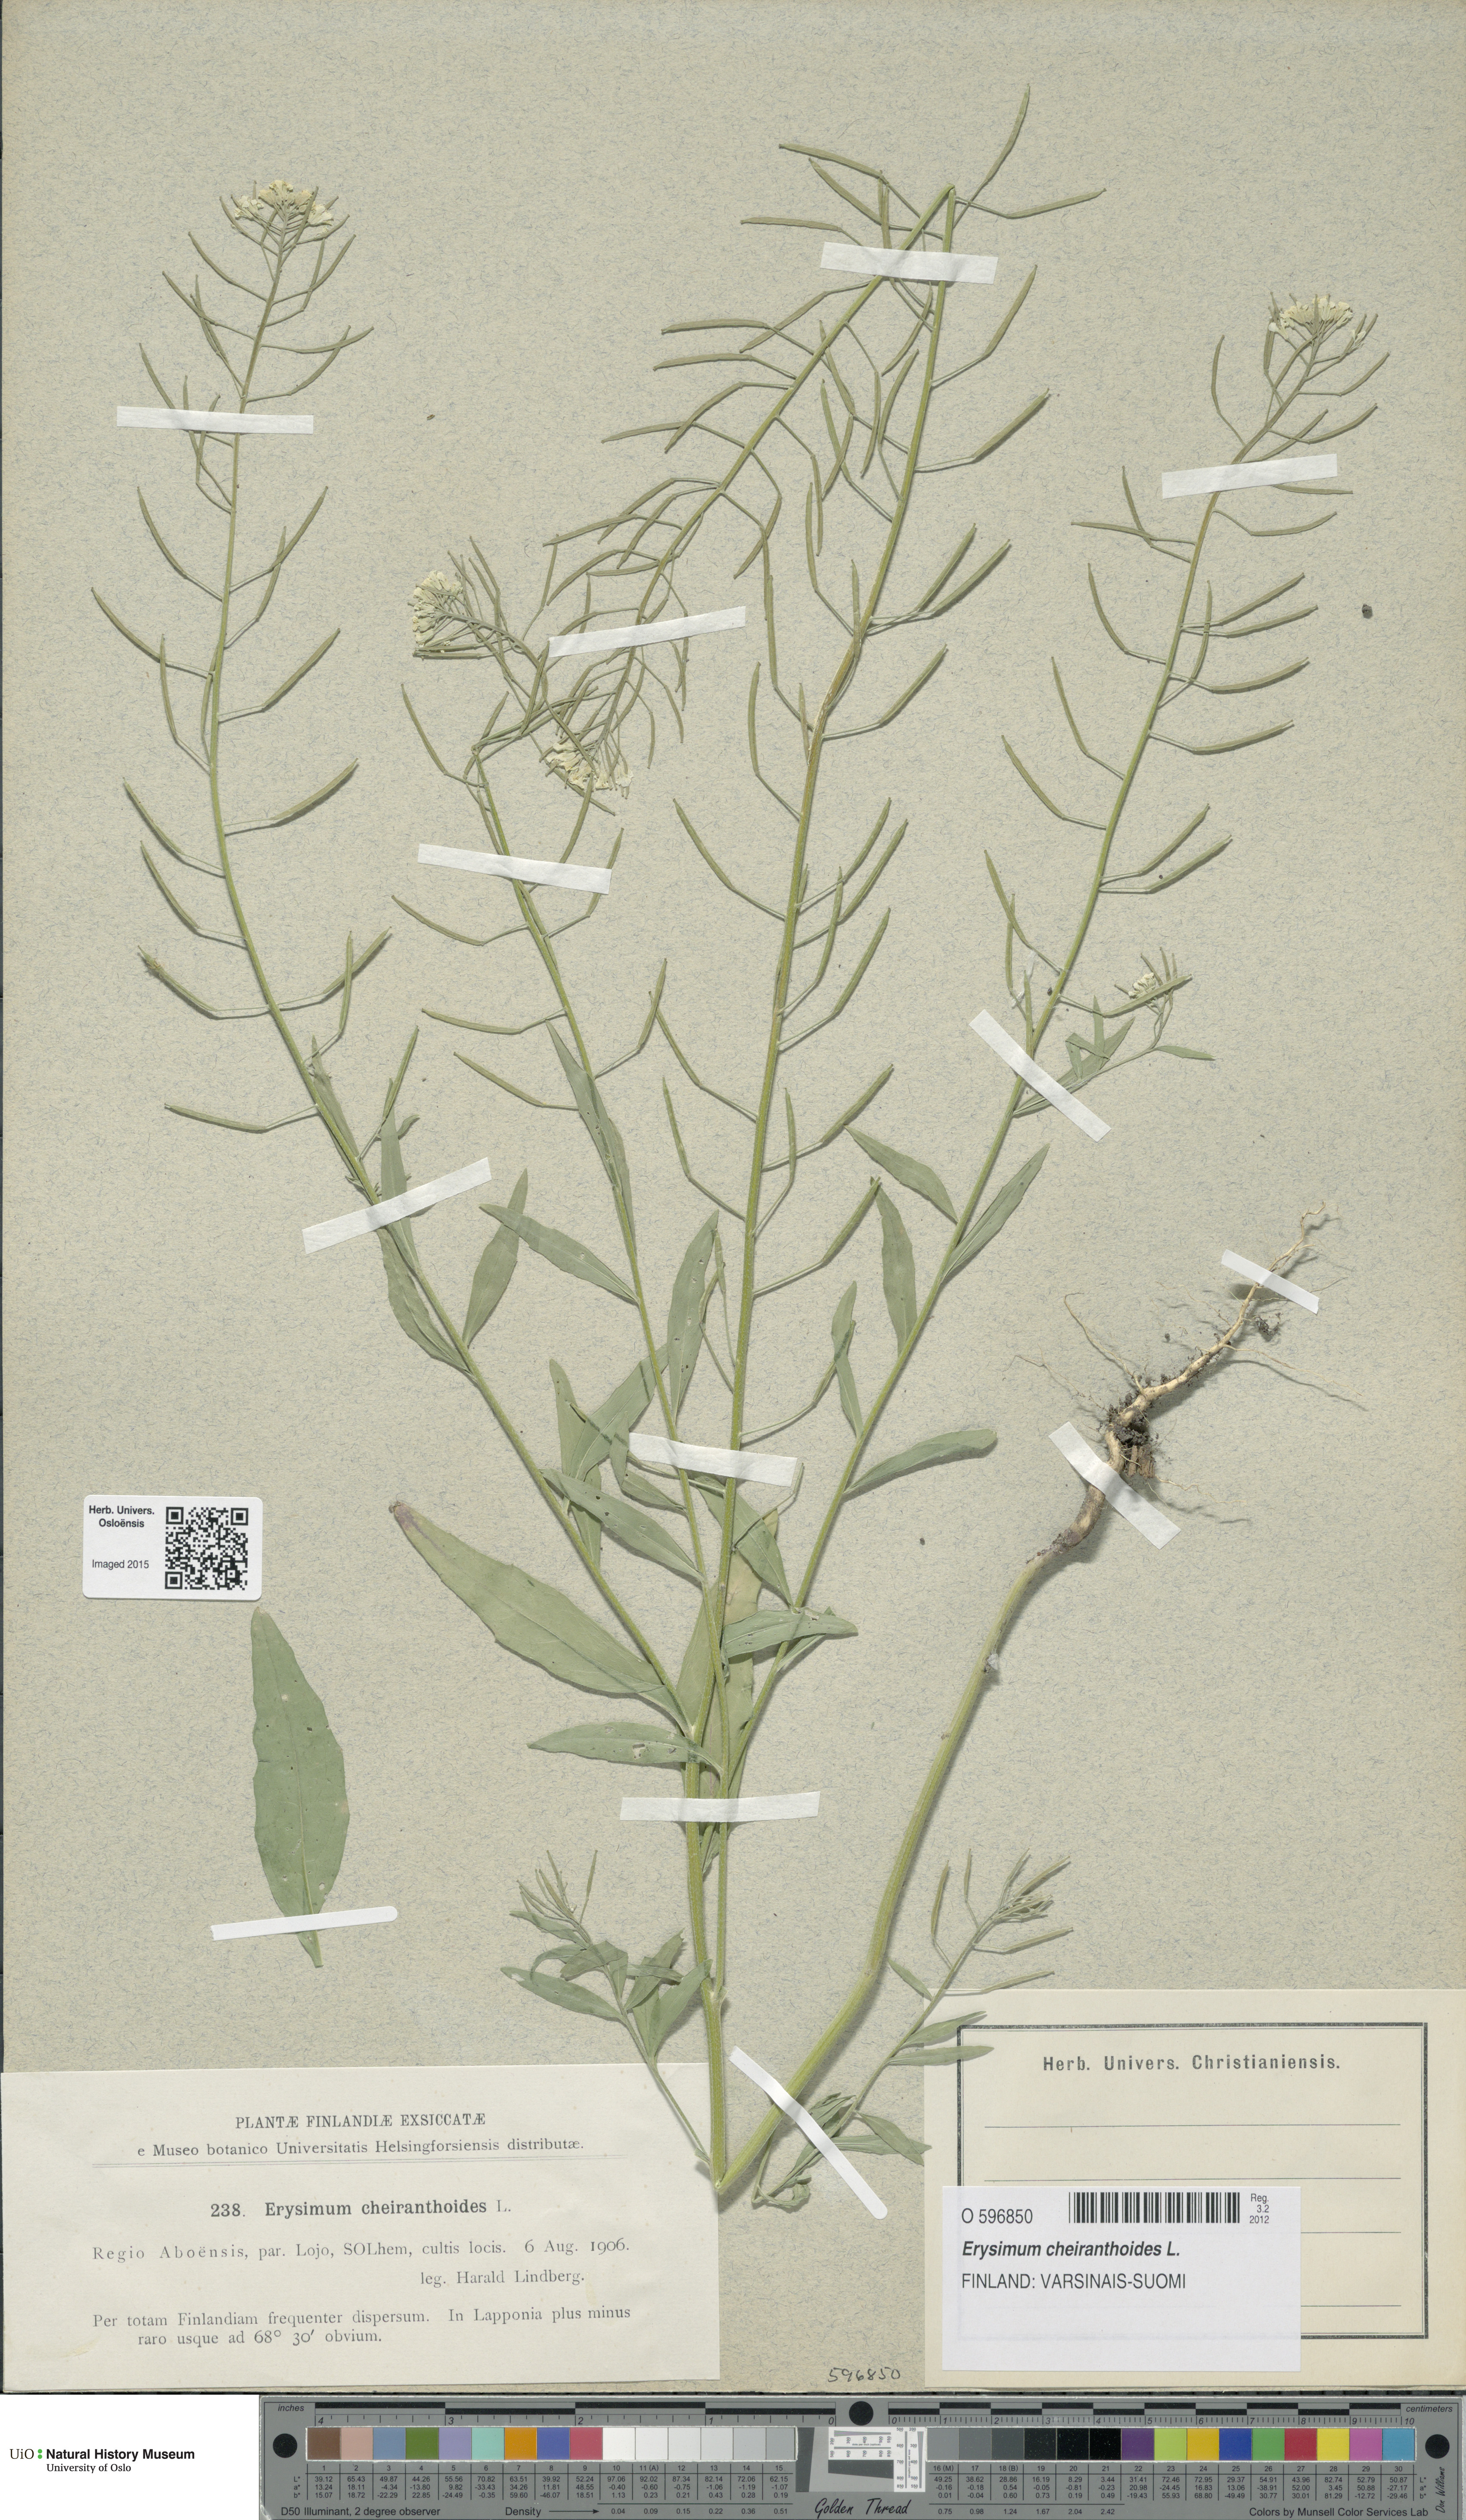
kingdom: Plantae
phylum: Tracheophyta
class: Magnoliopsida
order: Brassicales
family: Brassicaceae
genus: Erysimum
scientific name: Erysimum cheiranthoides
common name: Treacle mustard
